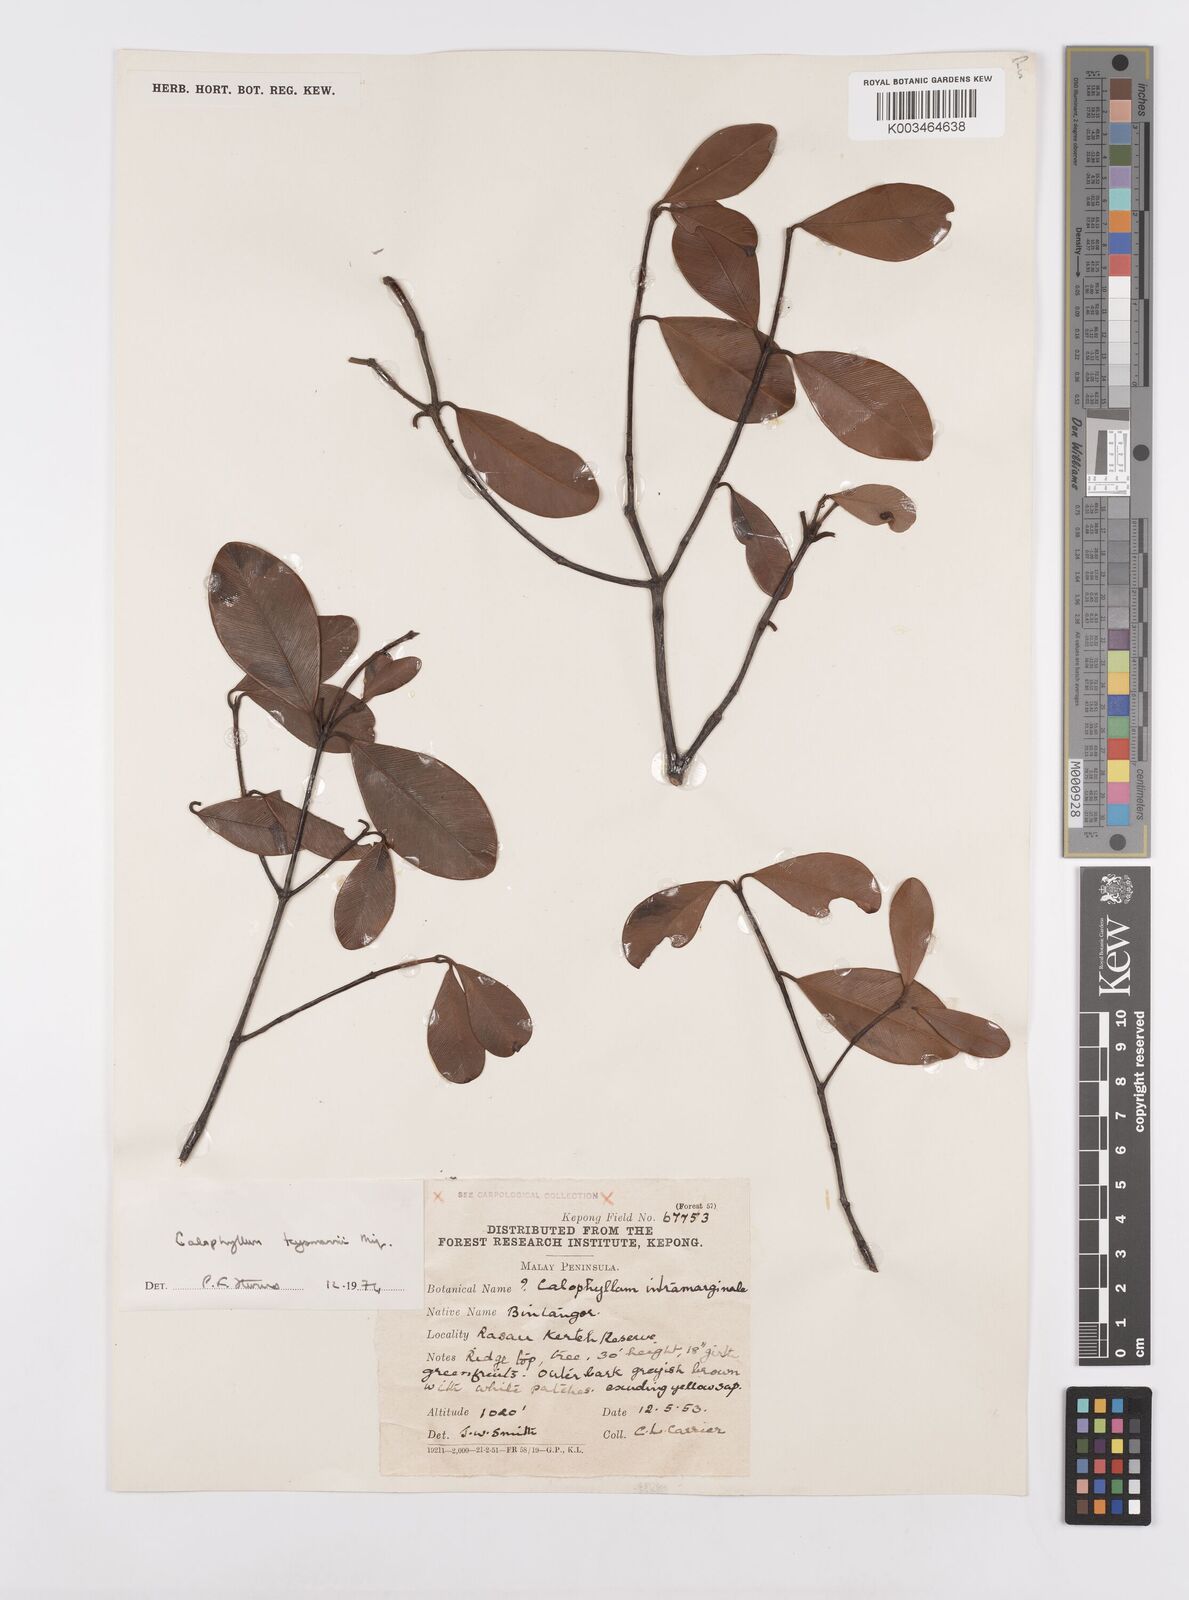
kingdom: Plantae
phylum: Tracheophyta
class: Magnoliopsida
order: Malpighiales
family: Calophyllaceae
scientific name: Calophyllaceae
